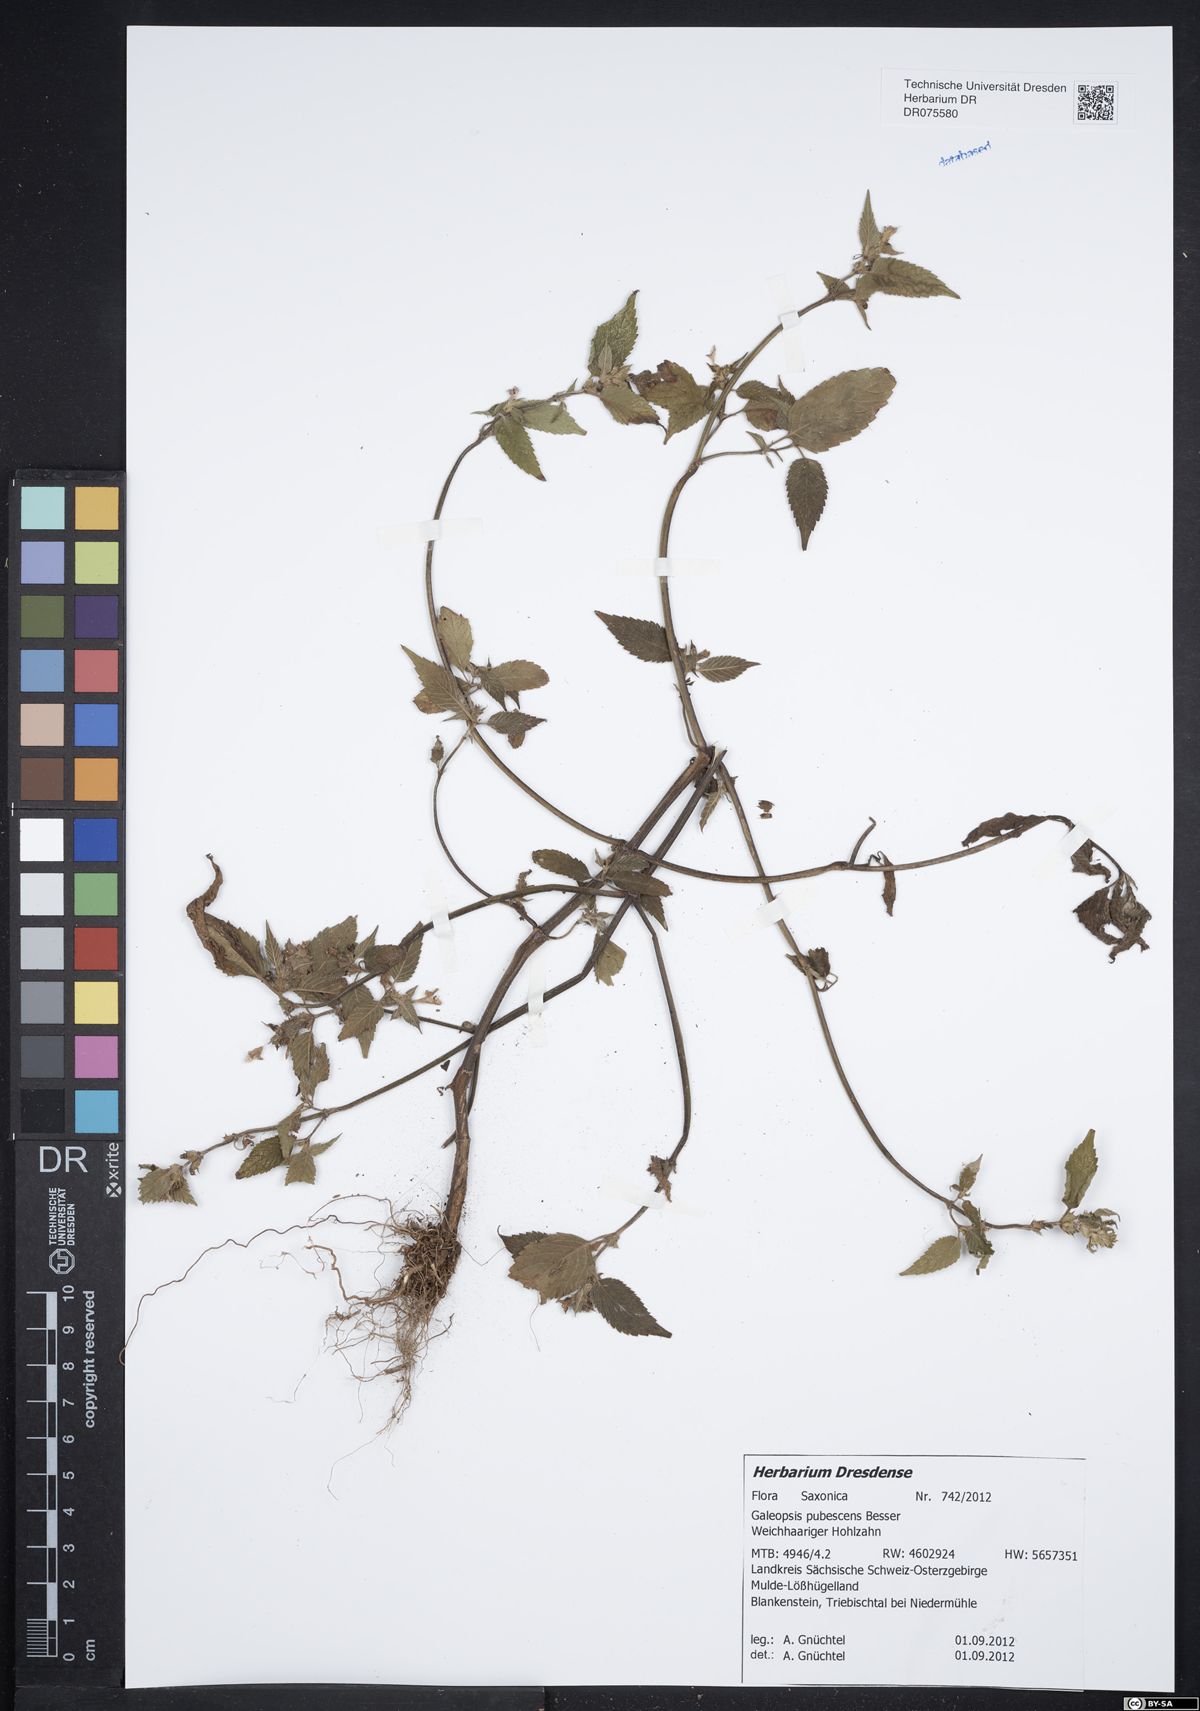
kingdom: Plantae
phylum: Tracheophyta
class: Magnoliopsida
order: Lamiales
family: Lamiaceae
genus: Galeopsis
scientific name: Galeopsis pubescens
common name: Downy hemp-nettle
